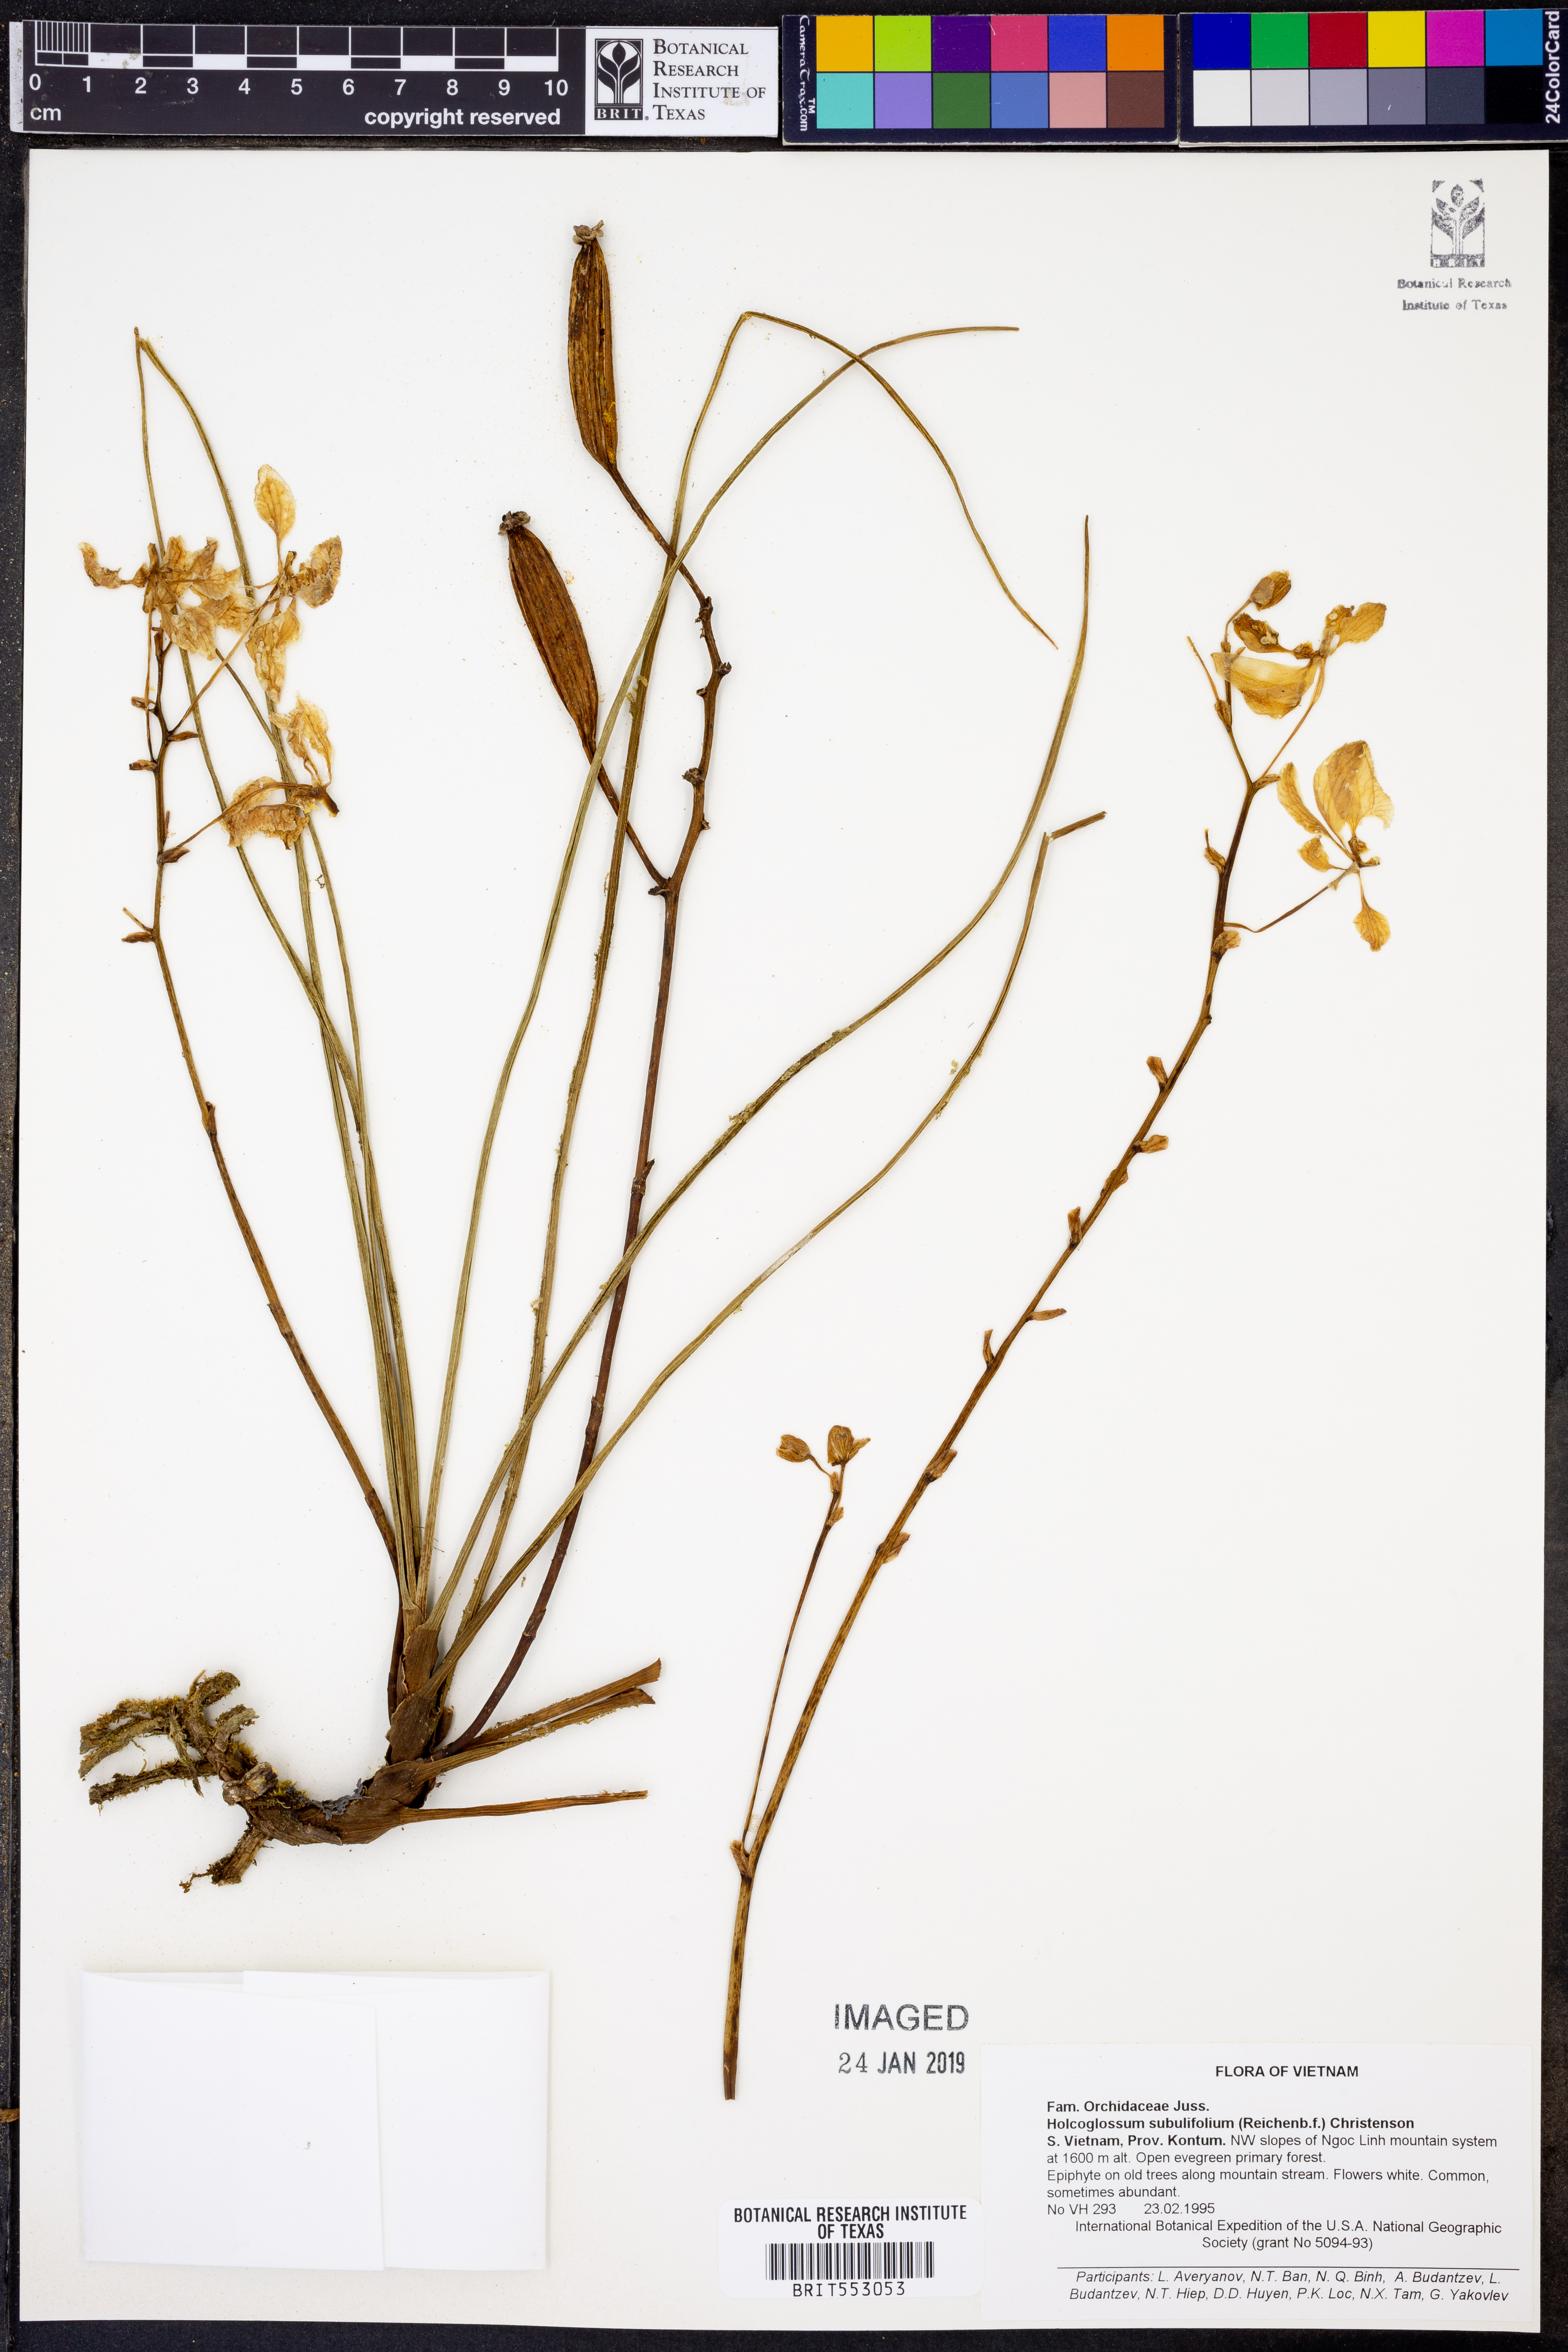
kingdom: Plantae
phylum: Tracheophyta
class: Liliopsida
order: Asparagales
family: Orchidaceae
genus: Holcoglossum
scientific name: Holcoglossum subulifolium
